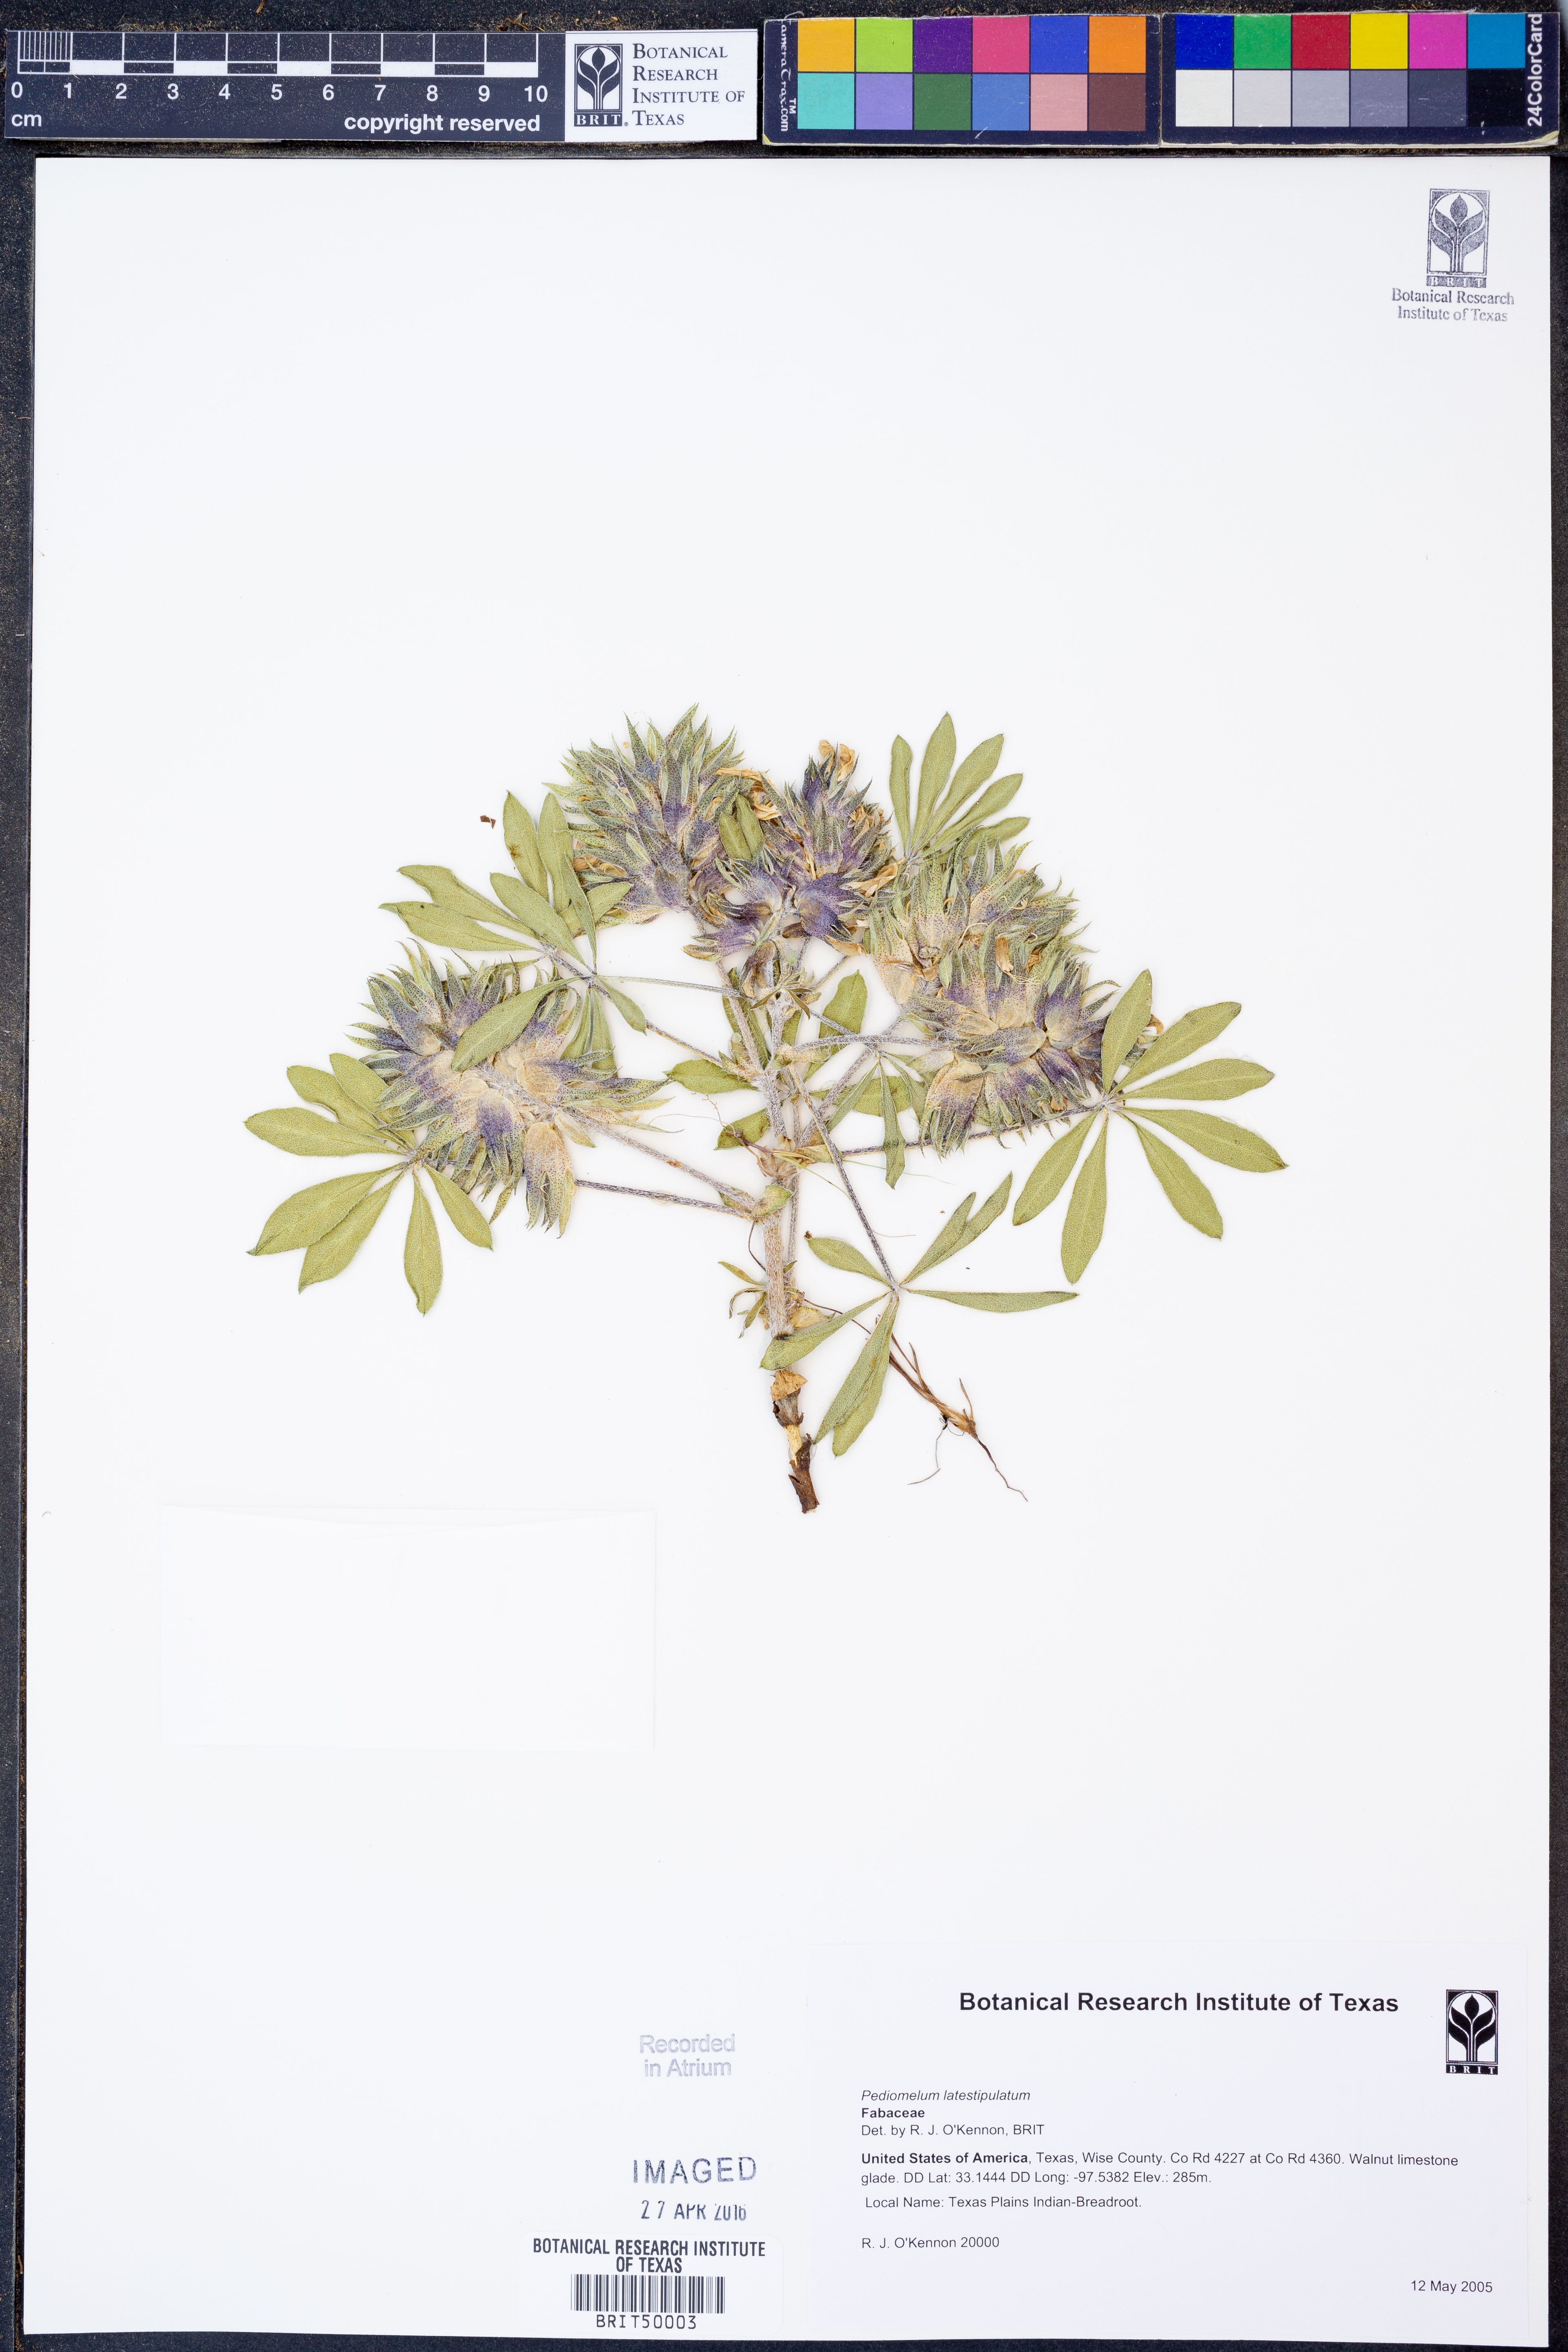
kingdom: Plantae
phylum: Tracheophyta
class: Magnoliopsida
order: Fabales
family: Fabaceae
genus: Pediomelum
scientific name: Pediomelum latestipulatum
